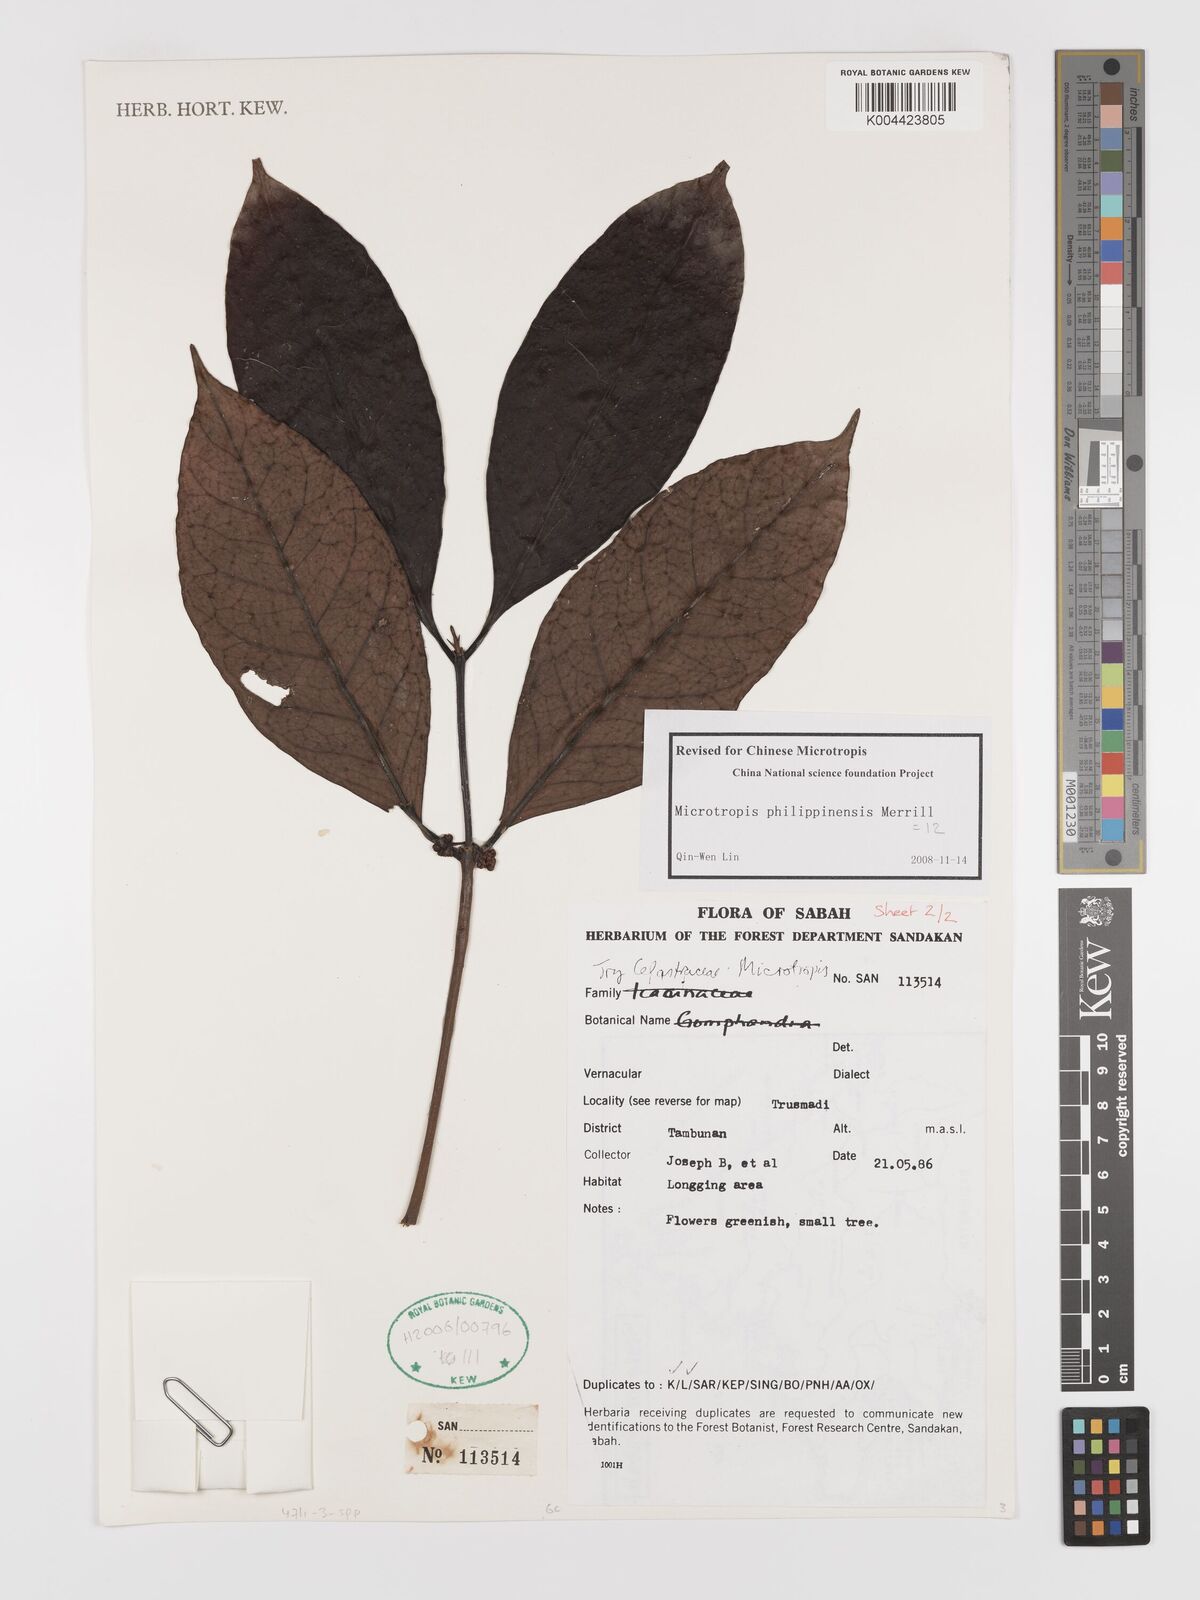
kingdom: Plantae
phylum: Tracheophyta
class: Magnoliopsida
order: Celastrales
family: Celastraceae
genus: Microtropis
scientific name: Microtropis platyphylla
